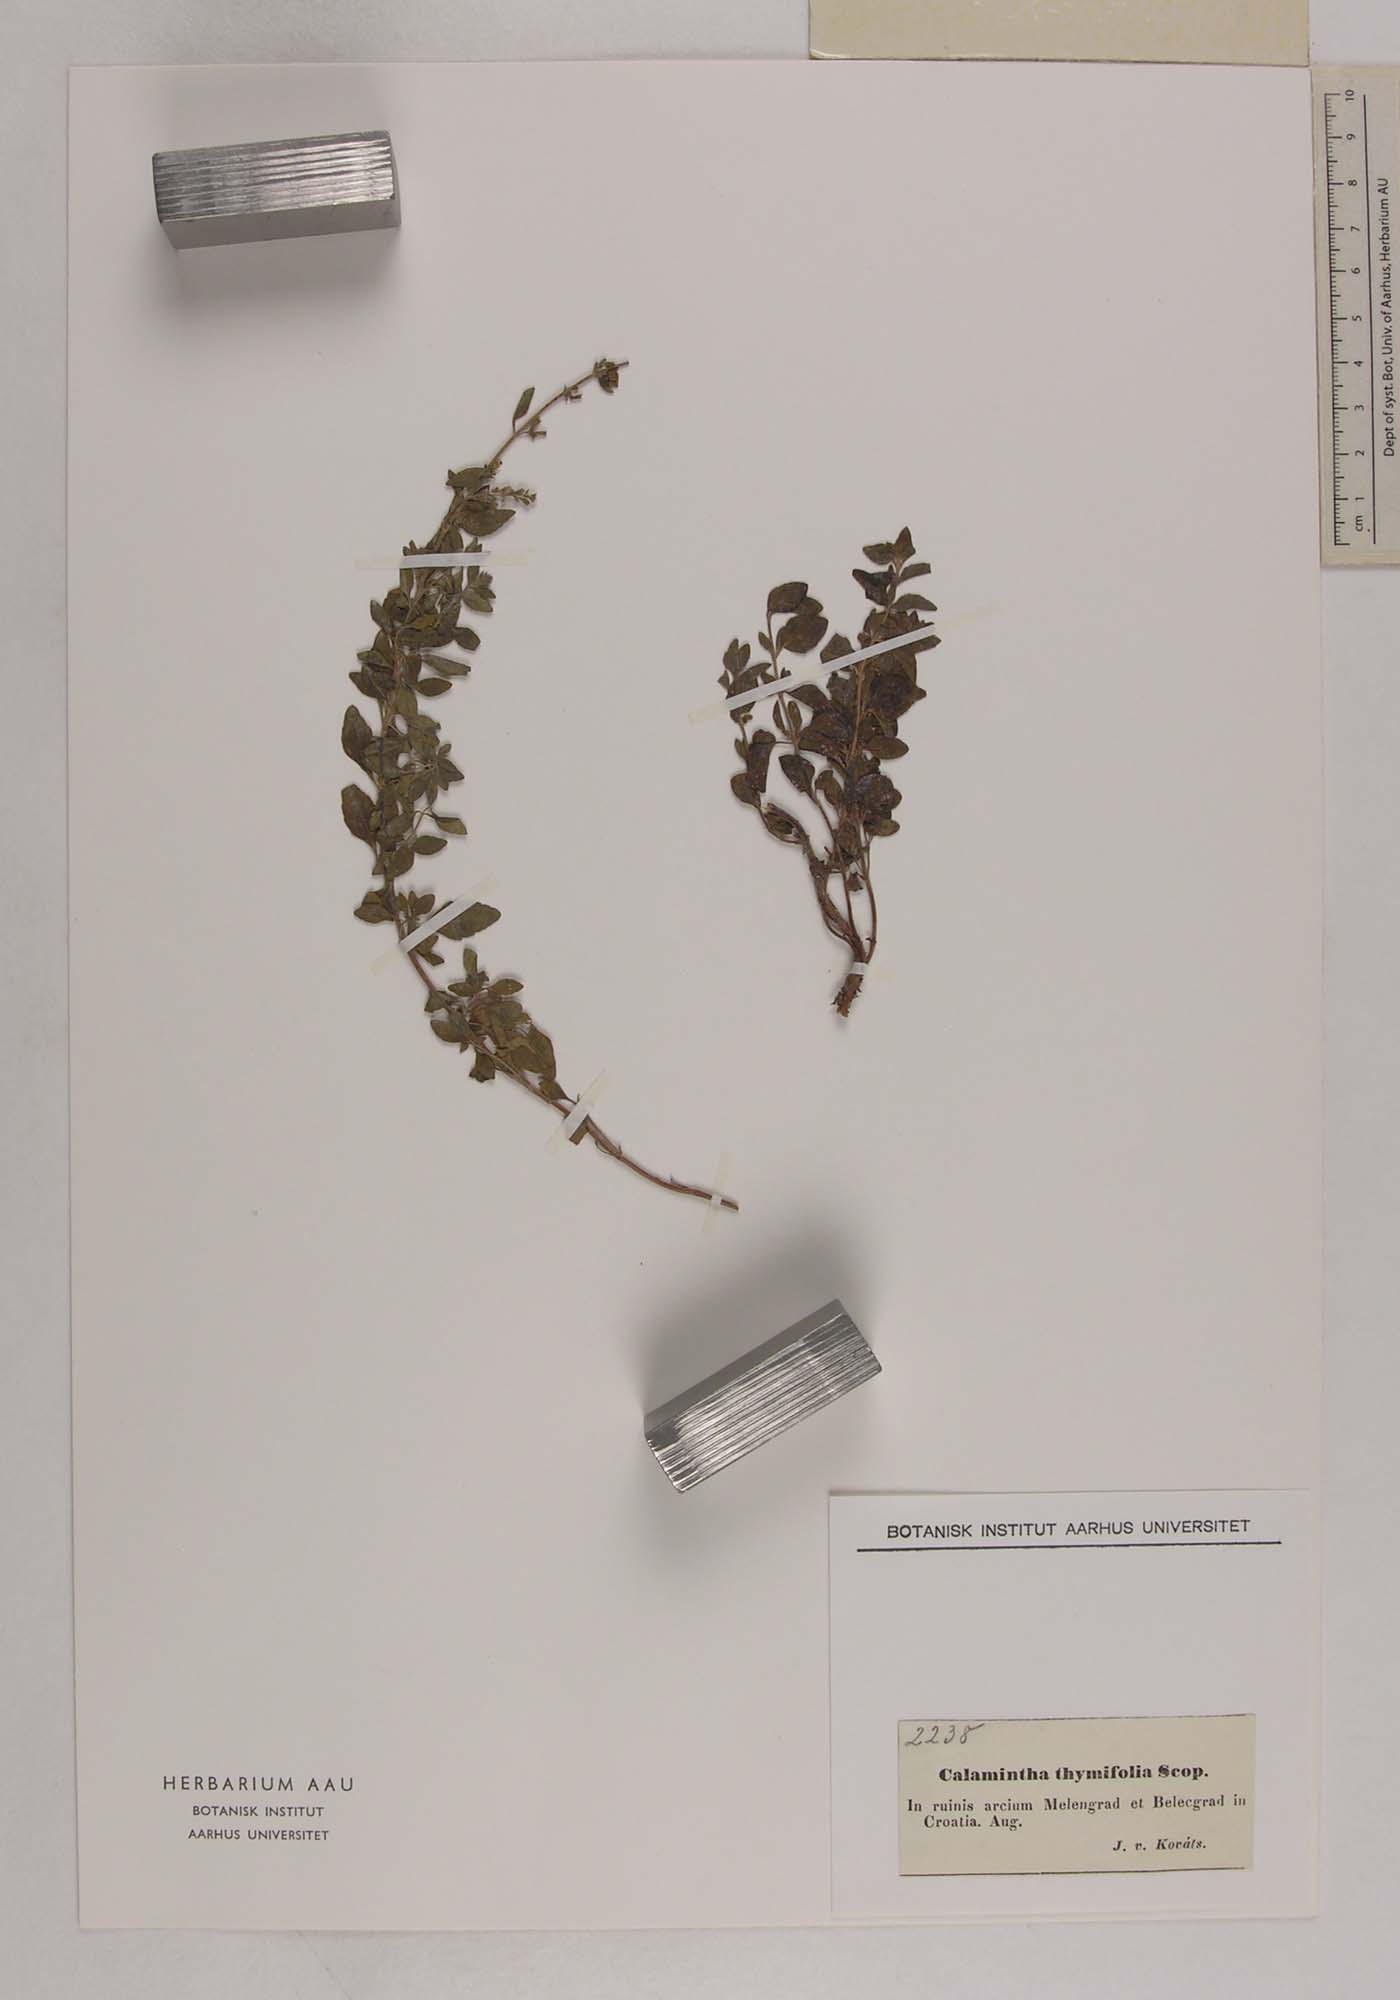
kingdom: Plantae
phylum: Tracheophyta
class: Magnoliopsida
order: Lamiales
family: Lamiaceae
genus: Clinopodium
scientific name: Clinopodium album
